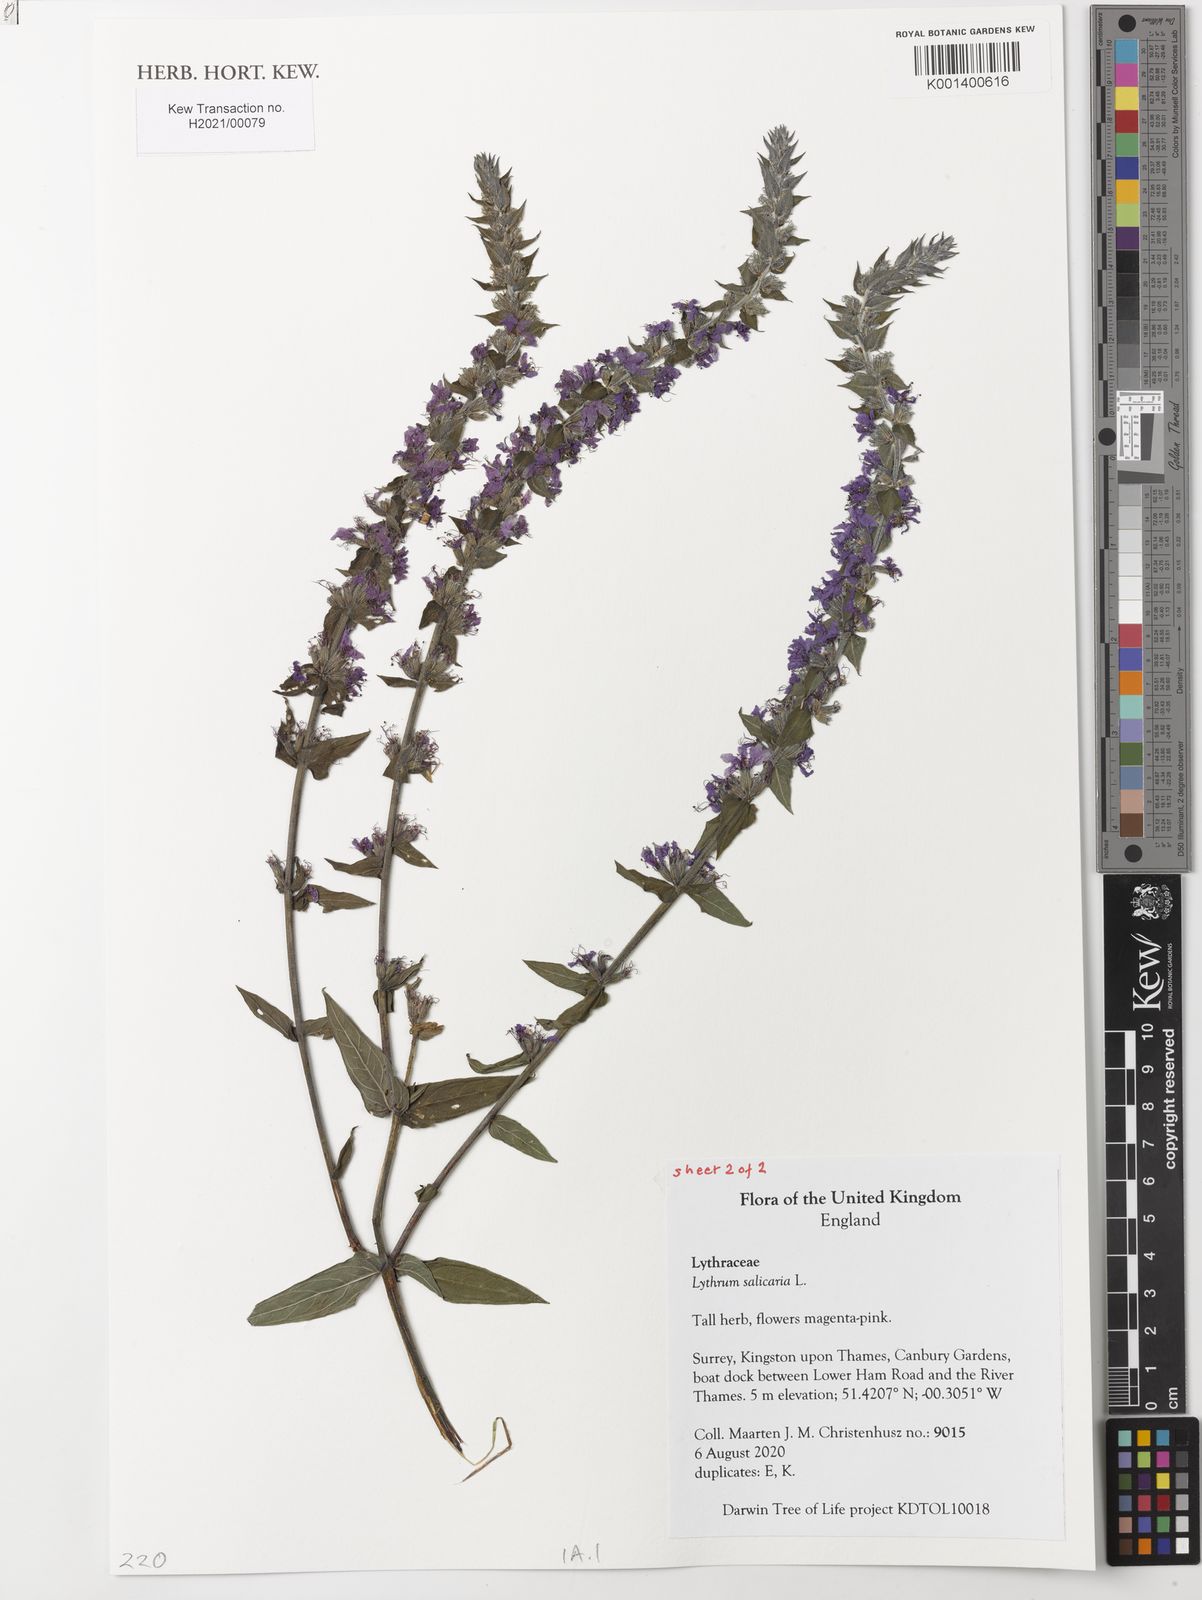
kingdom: Plantae
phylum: Tracheophyta
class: Magnoliopsida
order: Myrtales
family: Lythraceae
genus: Lythrum
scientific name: Lythrum salicaria
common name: Purple loosestrife
